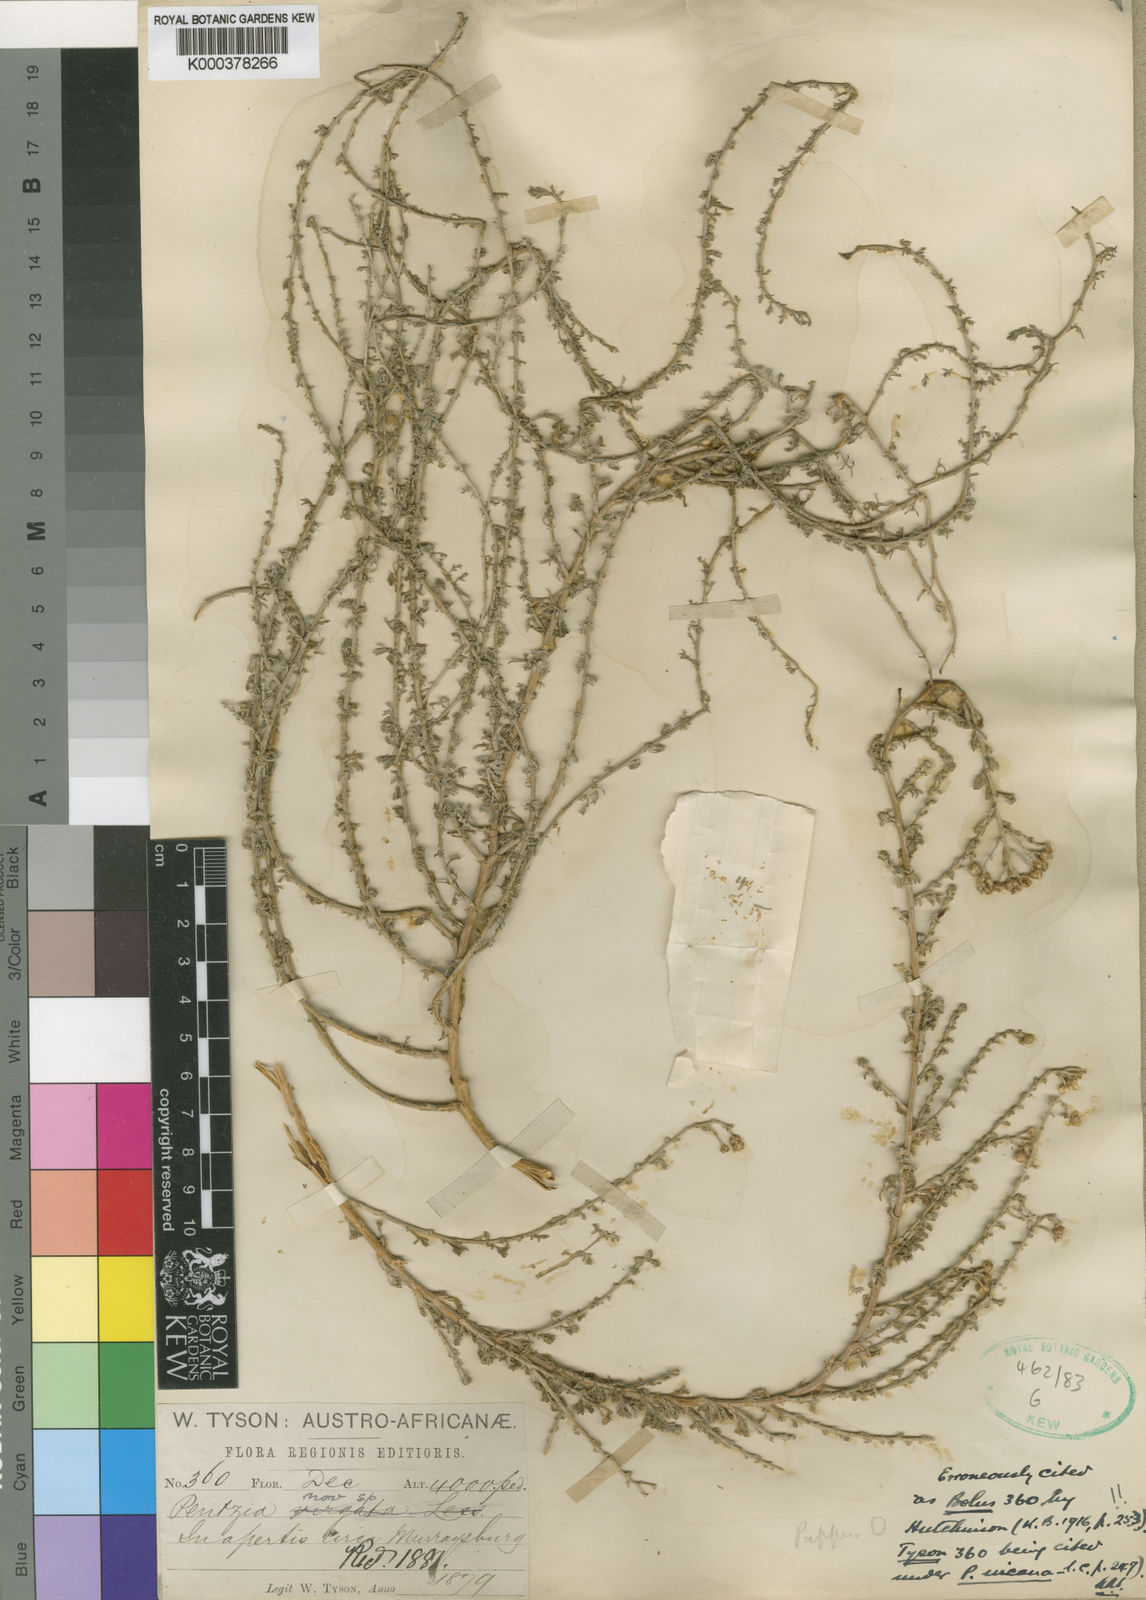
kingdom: Plantae
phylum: Tracheophyta
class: Magnoliopsida
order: Asterales
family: Asteraceae
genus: Pentzia
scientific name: Pentzia elegans
